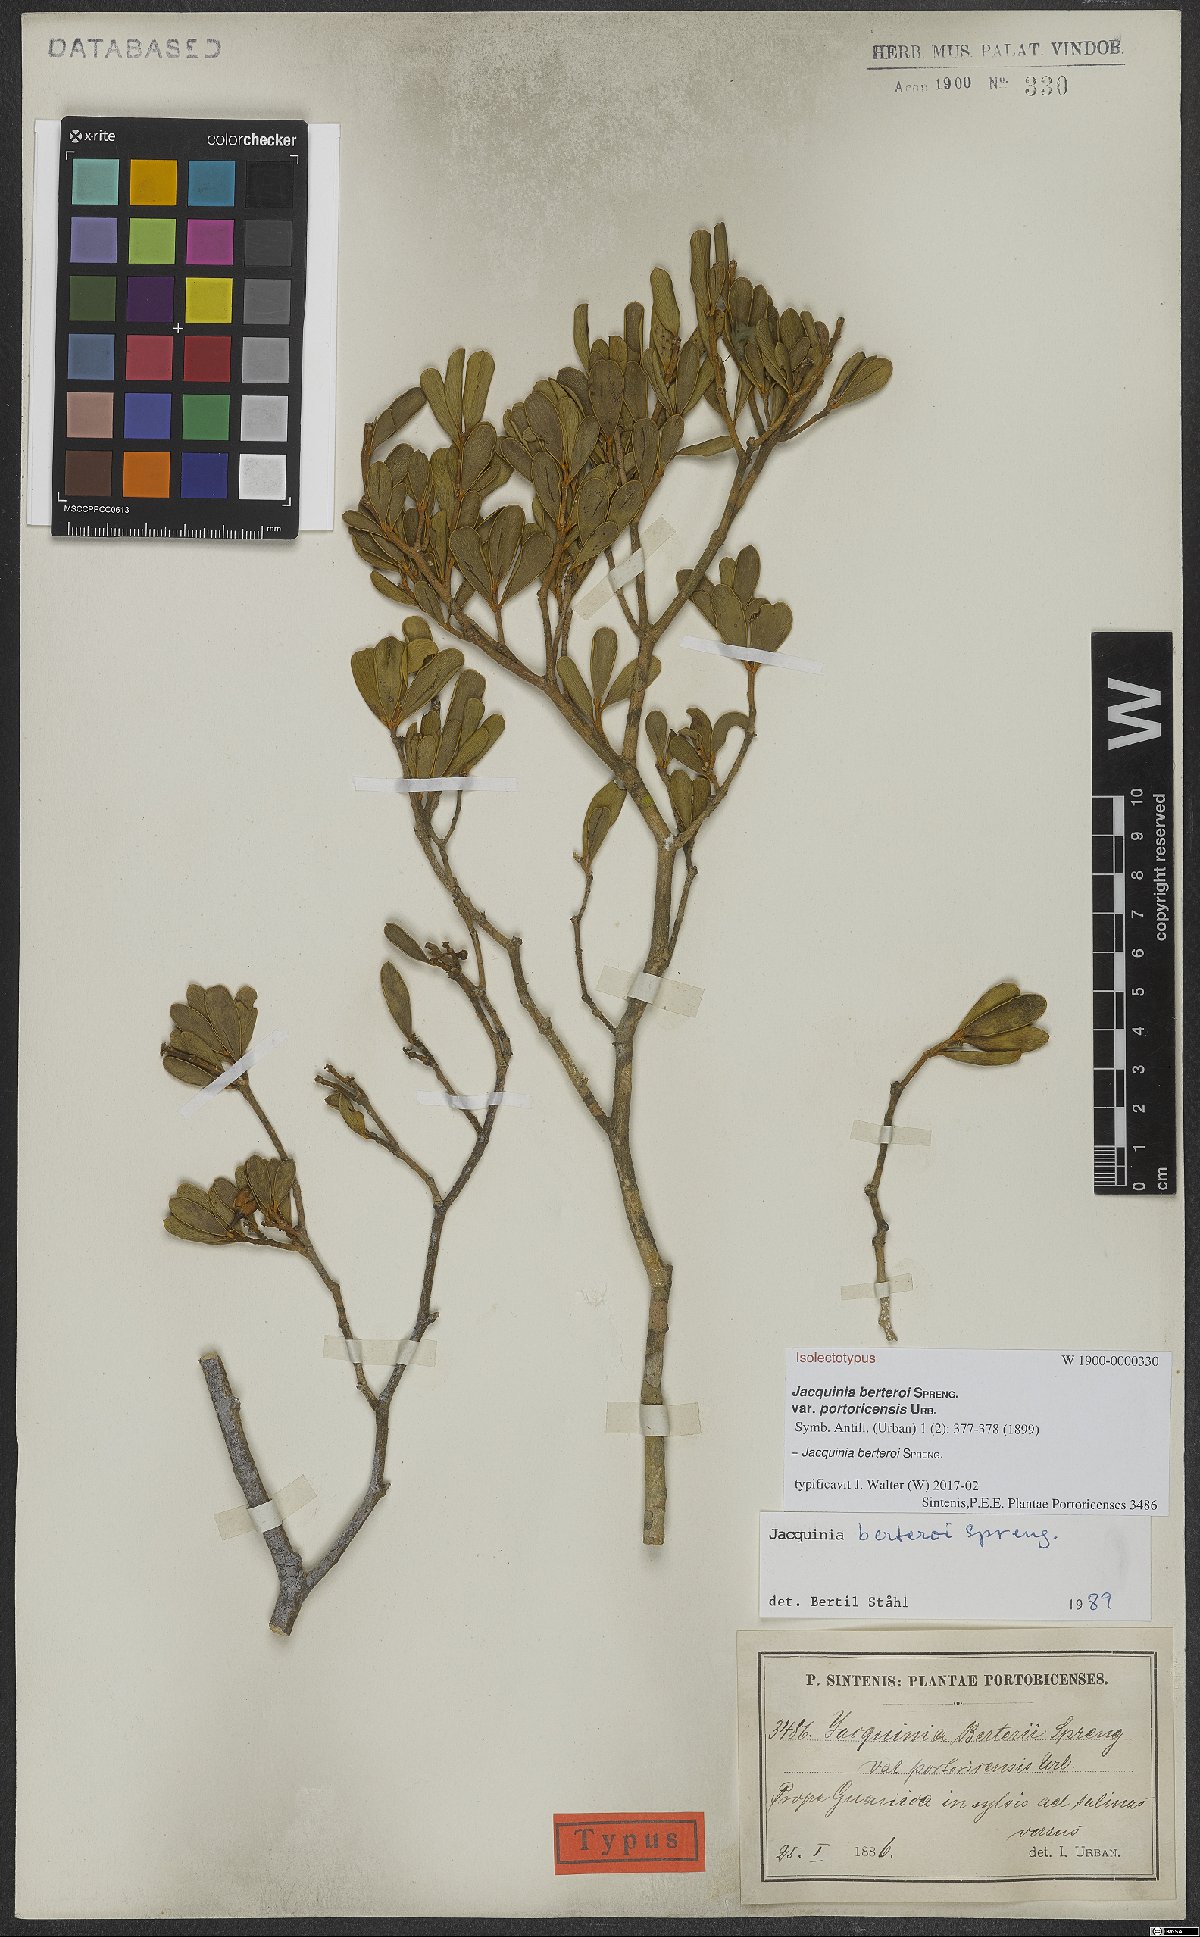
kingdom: Plantae
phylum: Tracheophyta
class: Magnoliopsida
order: Ericales
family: Primulaceae
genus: Jacquinia
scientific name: Jacquinia berteroi
